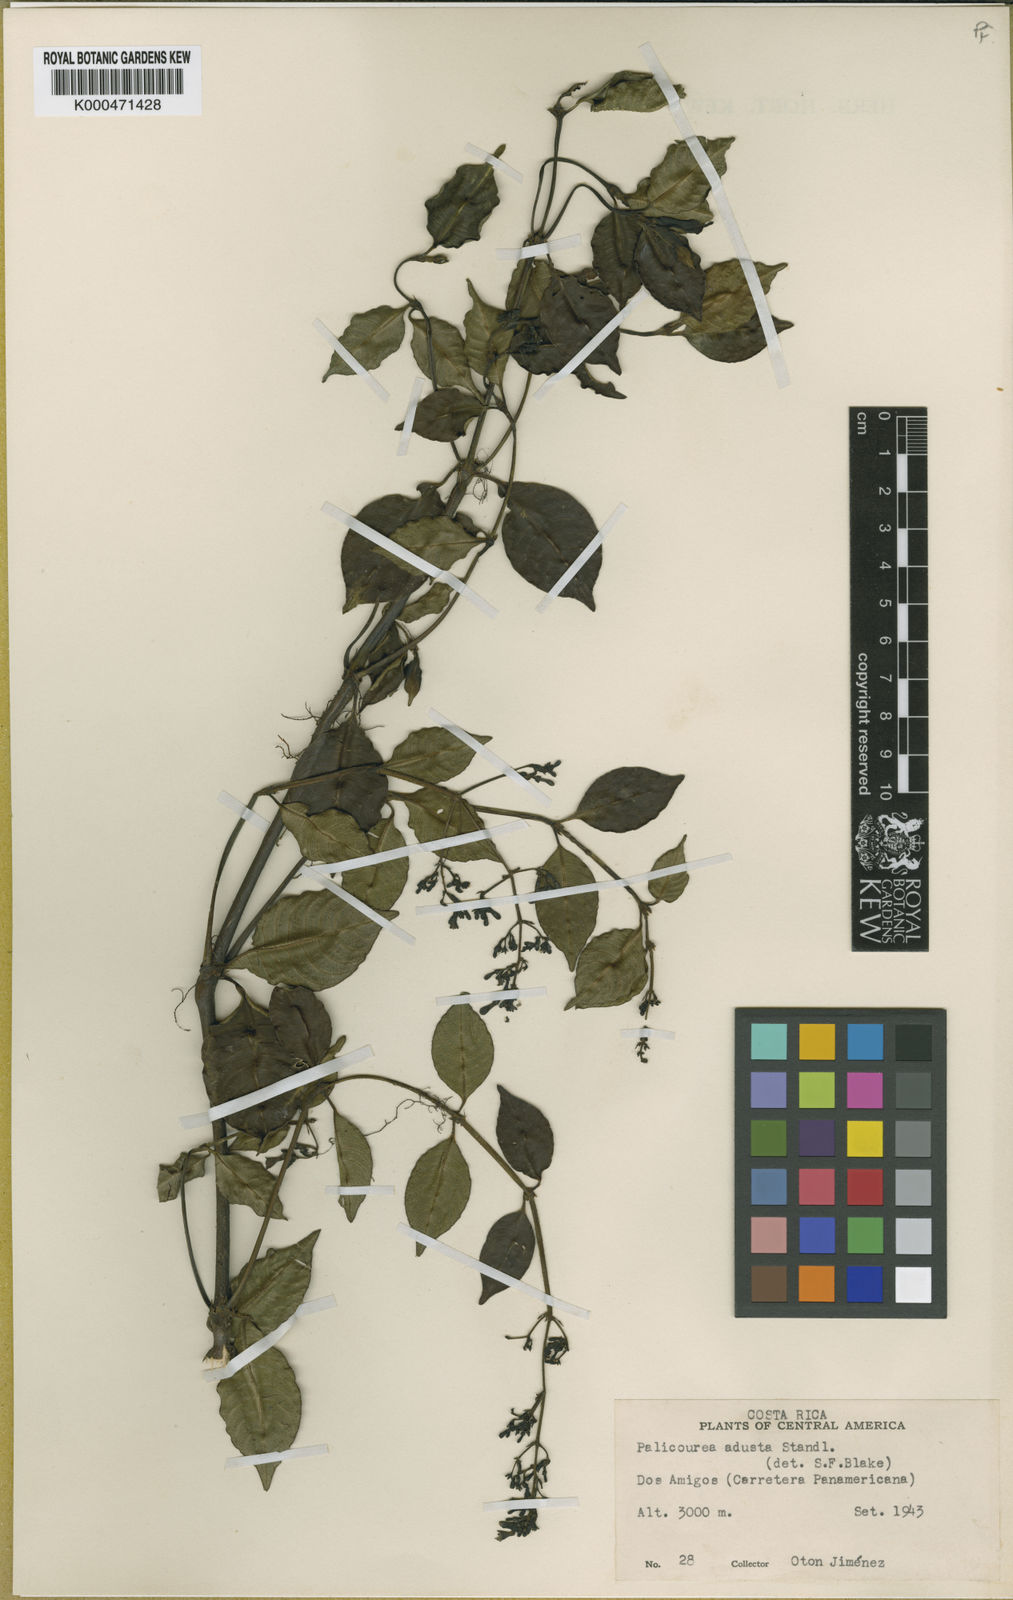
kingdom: Plantae
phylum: Tracheophyta
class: Magnoliopsida
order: Gentianales
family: Rubiaceae
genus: Palicourea
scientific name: Palicourea adusta
